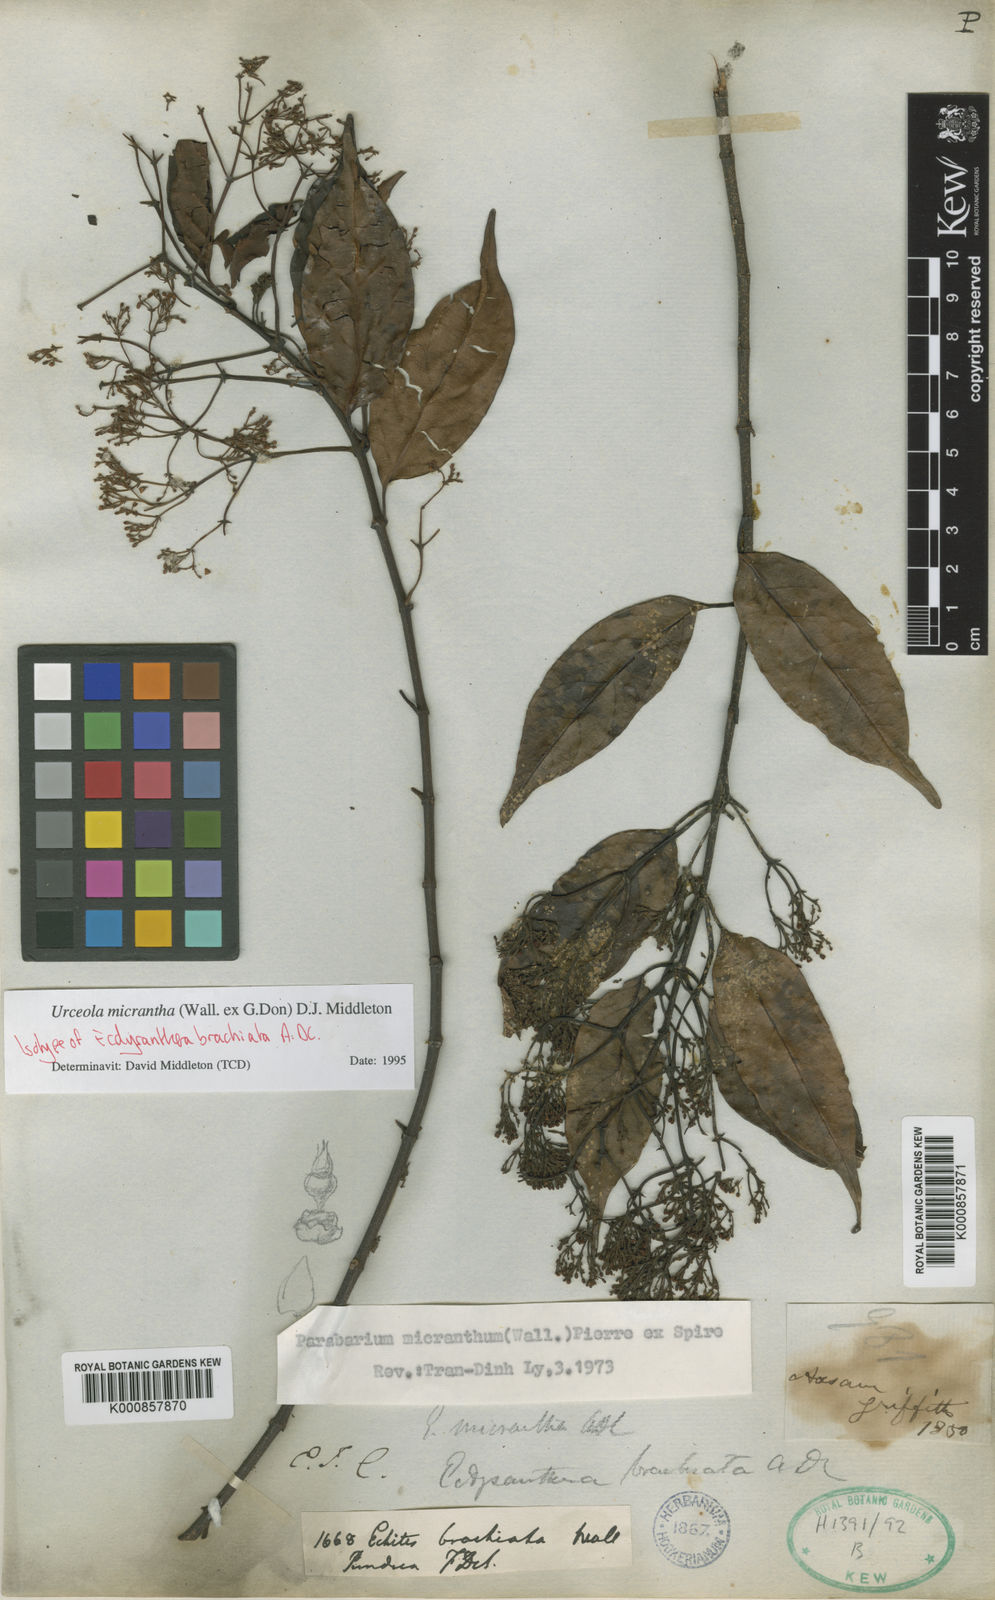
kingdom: Plantae
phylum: Tracheophyta
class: Magnoliopsida
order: Gentianales
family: Apocynaceae
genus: Urceola
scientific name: Urceola micrantha
